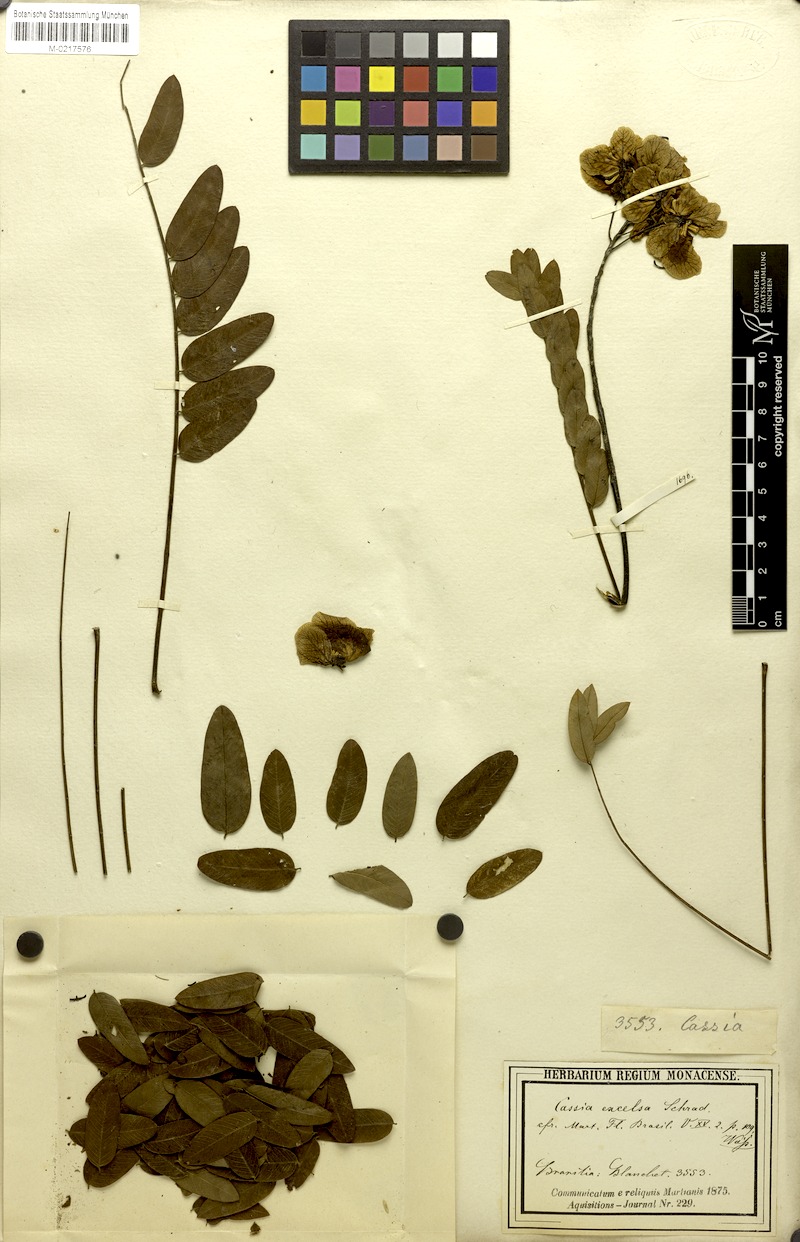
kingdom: Plantae
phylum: Tracheophyta
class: Magnoliopsida
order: Fabales
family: Fabaceae
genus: Senna
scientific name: Senna spectabilis
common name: Casia amarilla
